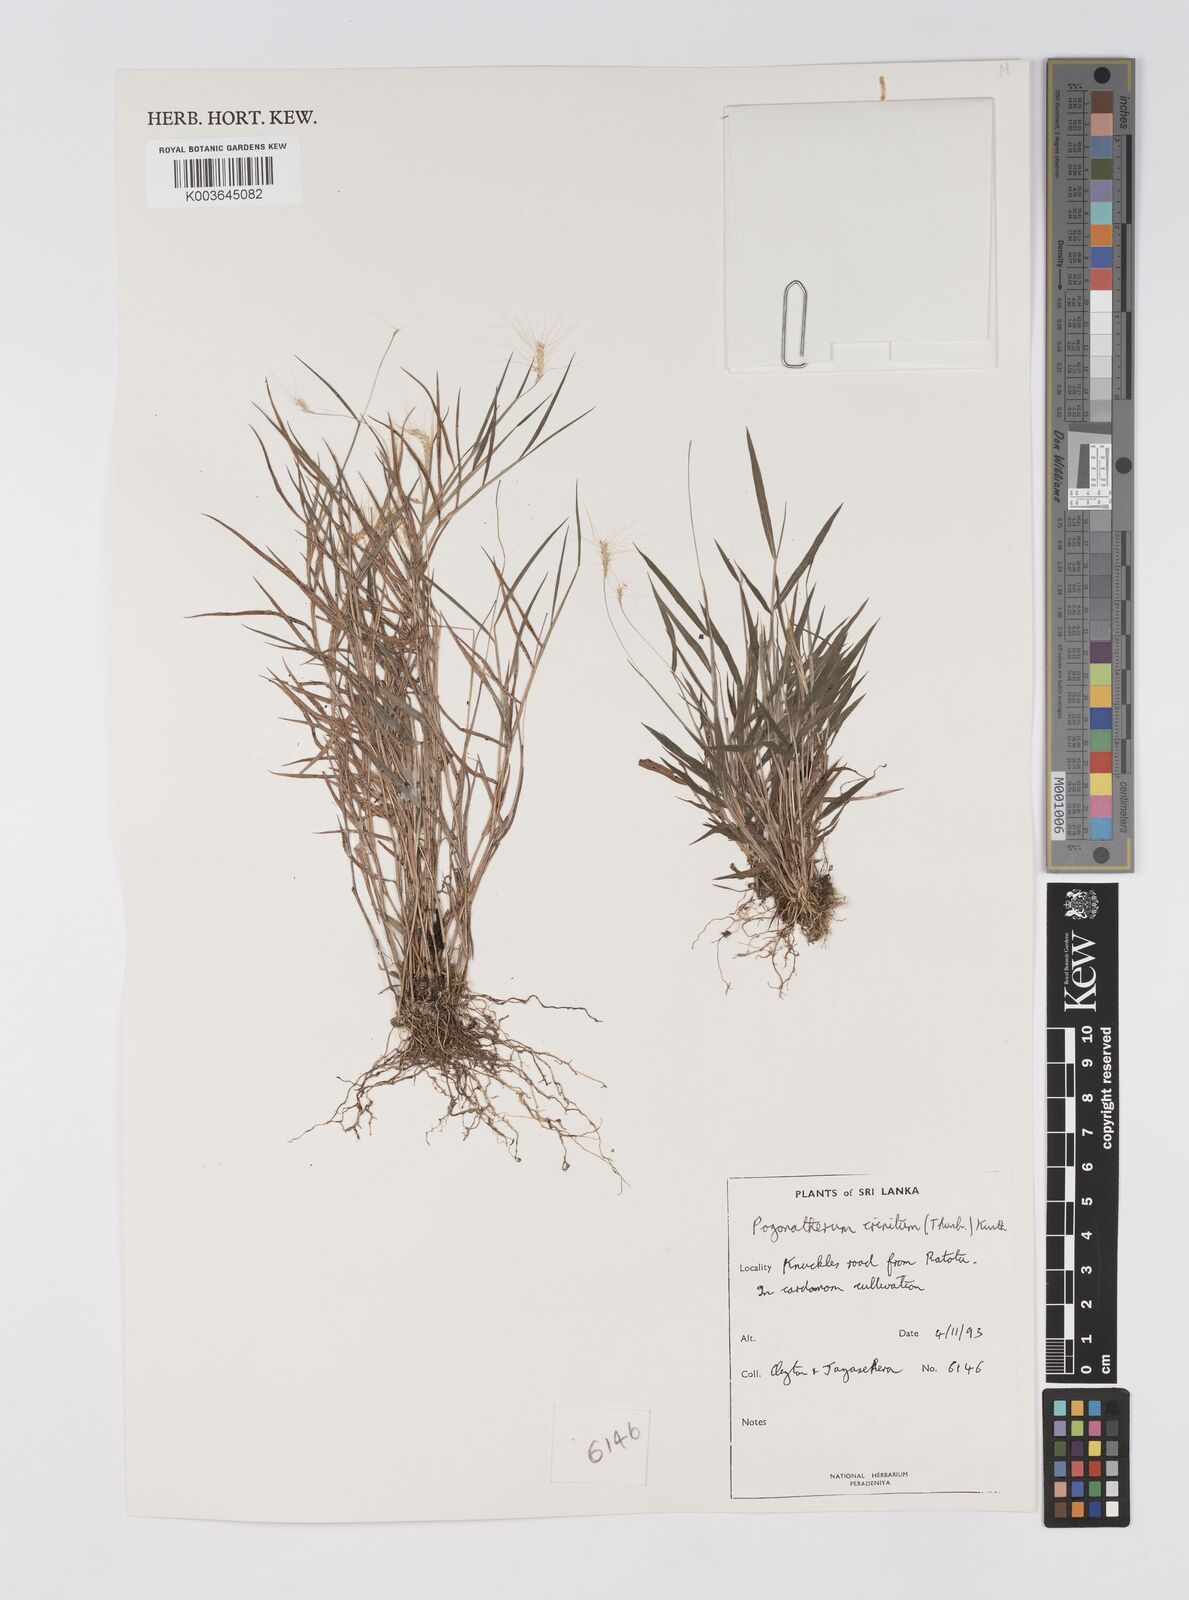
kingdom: Plantae
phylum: Tracheophyta
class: Liliopsida
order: Poales
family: Poaceae
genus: Pogonatherum
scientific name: Pogonatherum crinitum
